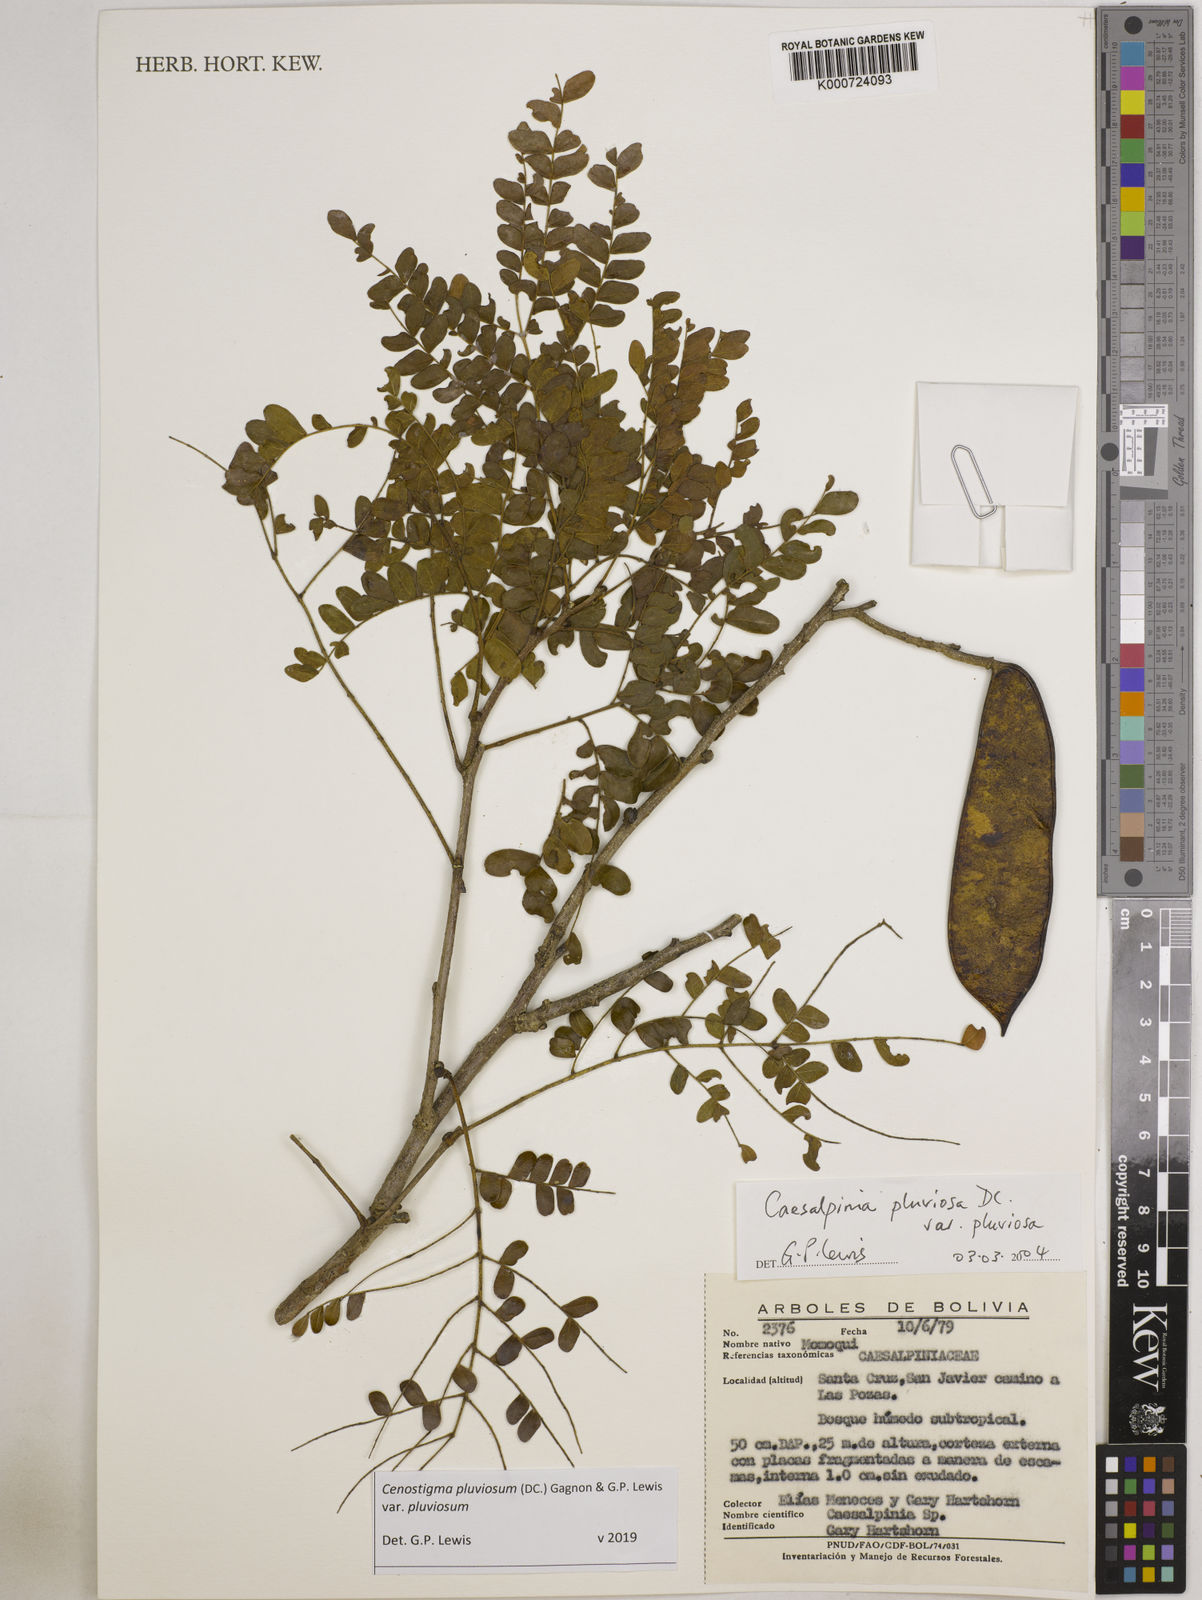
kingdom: Plantae
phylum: Tracheophyta
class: Magnoliopsida
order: Fabales
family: Fabaceae
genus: Cenostigma
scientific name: Cenostigma pluviosum
